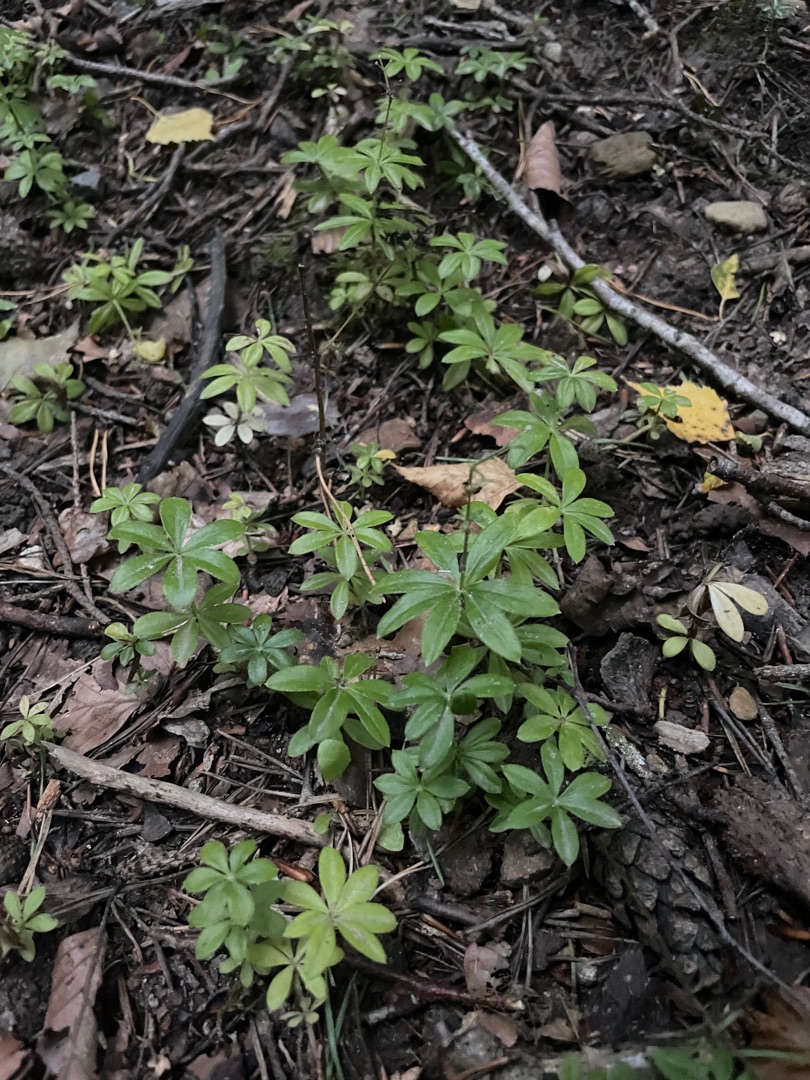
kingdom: Plantae
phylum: Tracheophyta
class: Magnoliopsida
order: Gentianales
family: Rubiaceae
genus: Galium
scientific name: Galium odoratum
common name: Skovmærke
